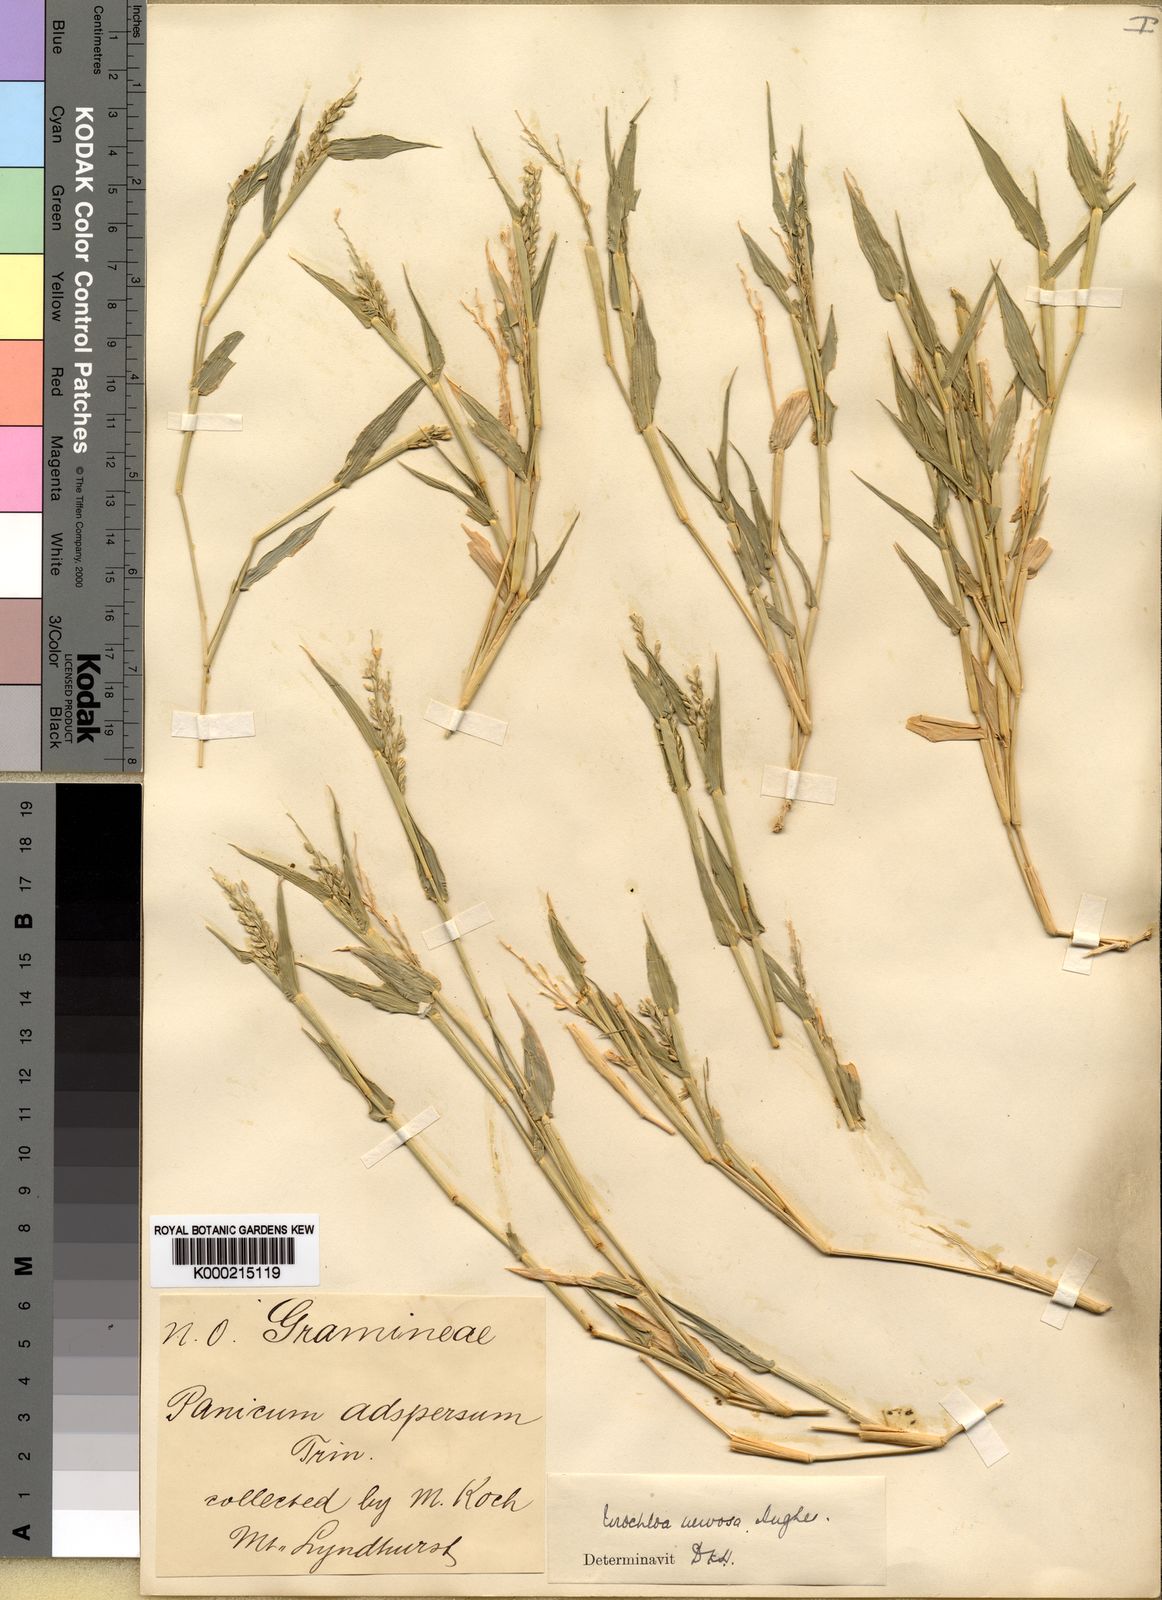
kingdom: Plantae
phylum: Tracheophyta
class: Liliopsida
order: Poales
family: Poaceae
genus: Urochloa
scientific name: Urochloa praetervisa
